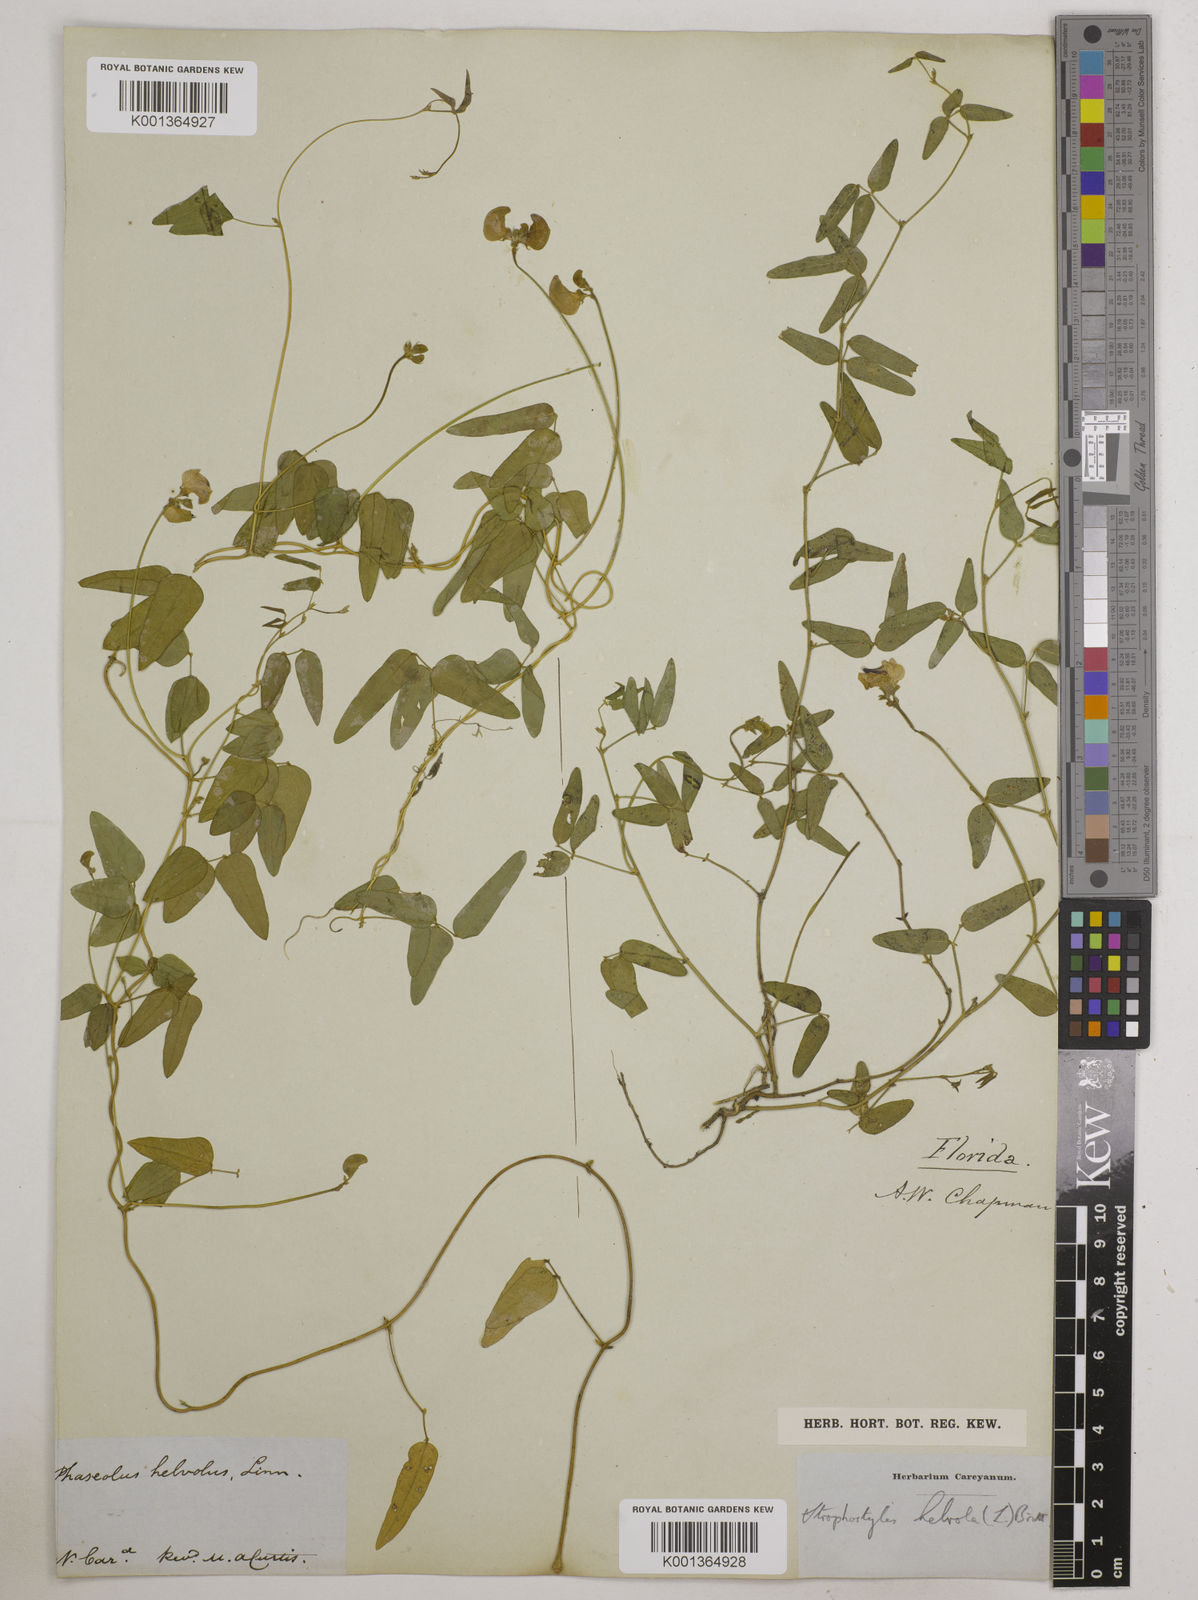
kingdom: Plantae
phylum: Tracheophyta
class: Magnoliopsida
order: Fabales
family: Fabaceae
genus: Strophostyles
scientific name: Strophostyles
